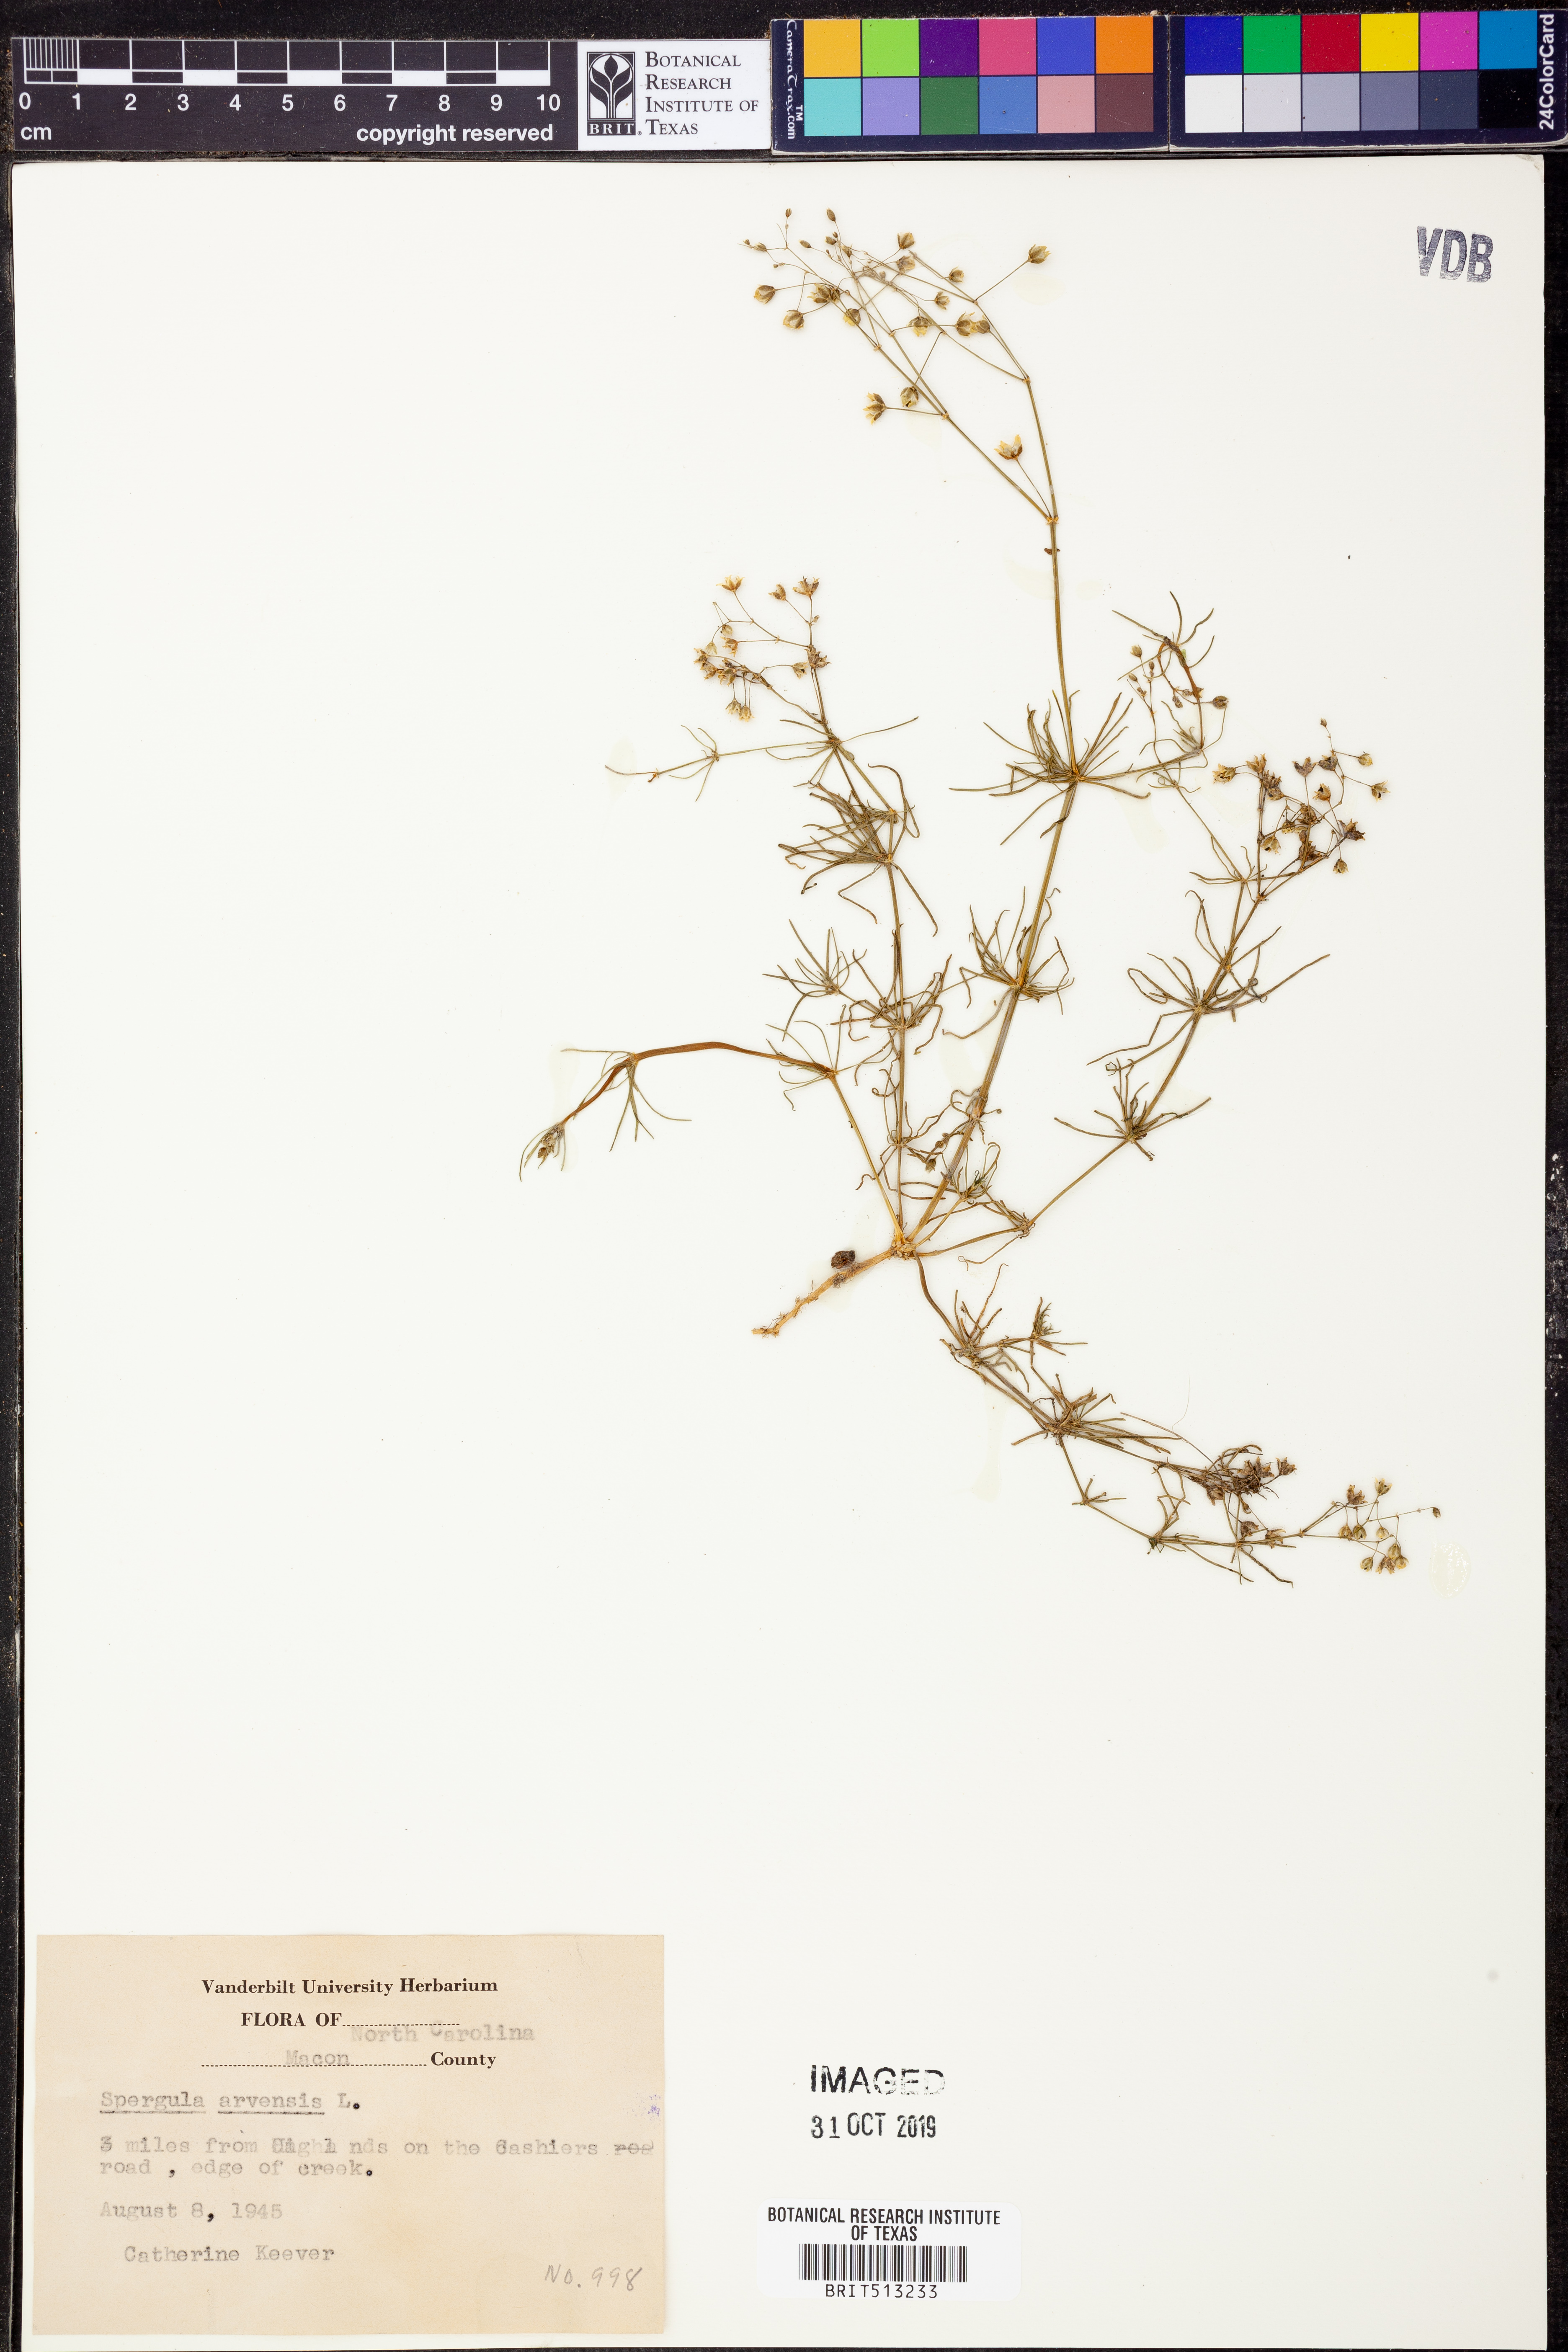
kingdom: Plantae
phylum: Tracheophyta
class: Magnoliopsida
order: Caryophyllales
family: Caryophyllaceae
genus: Spergula
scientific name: Spergula arvensis
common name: Corn spurrey
